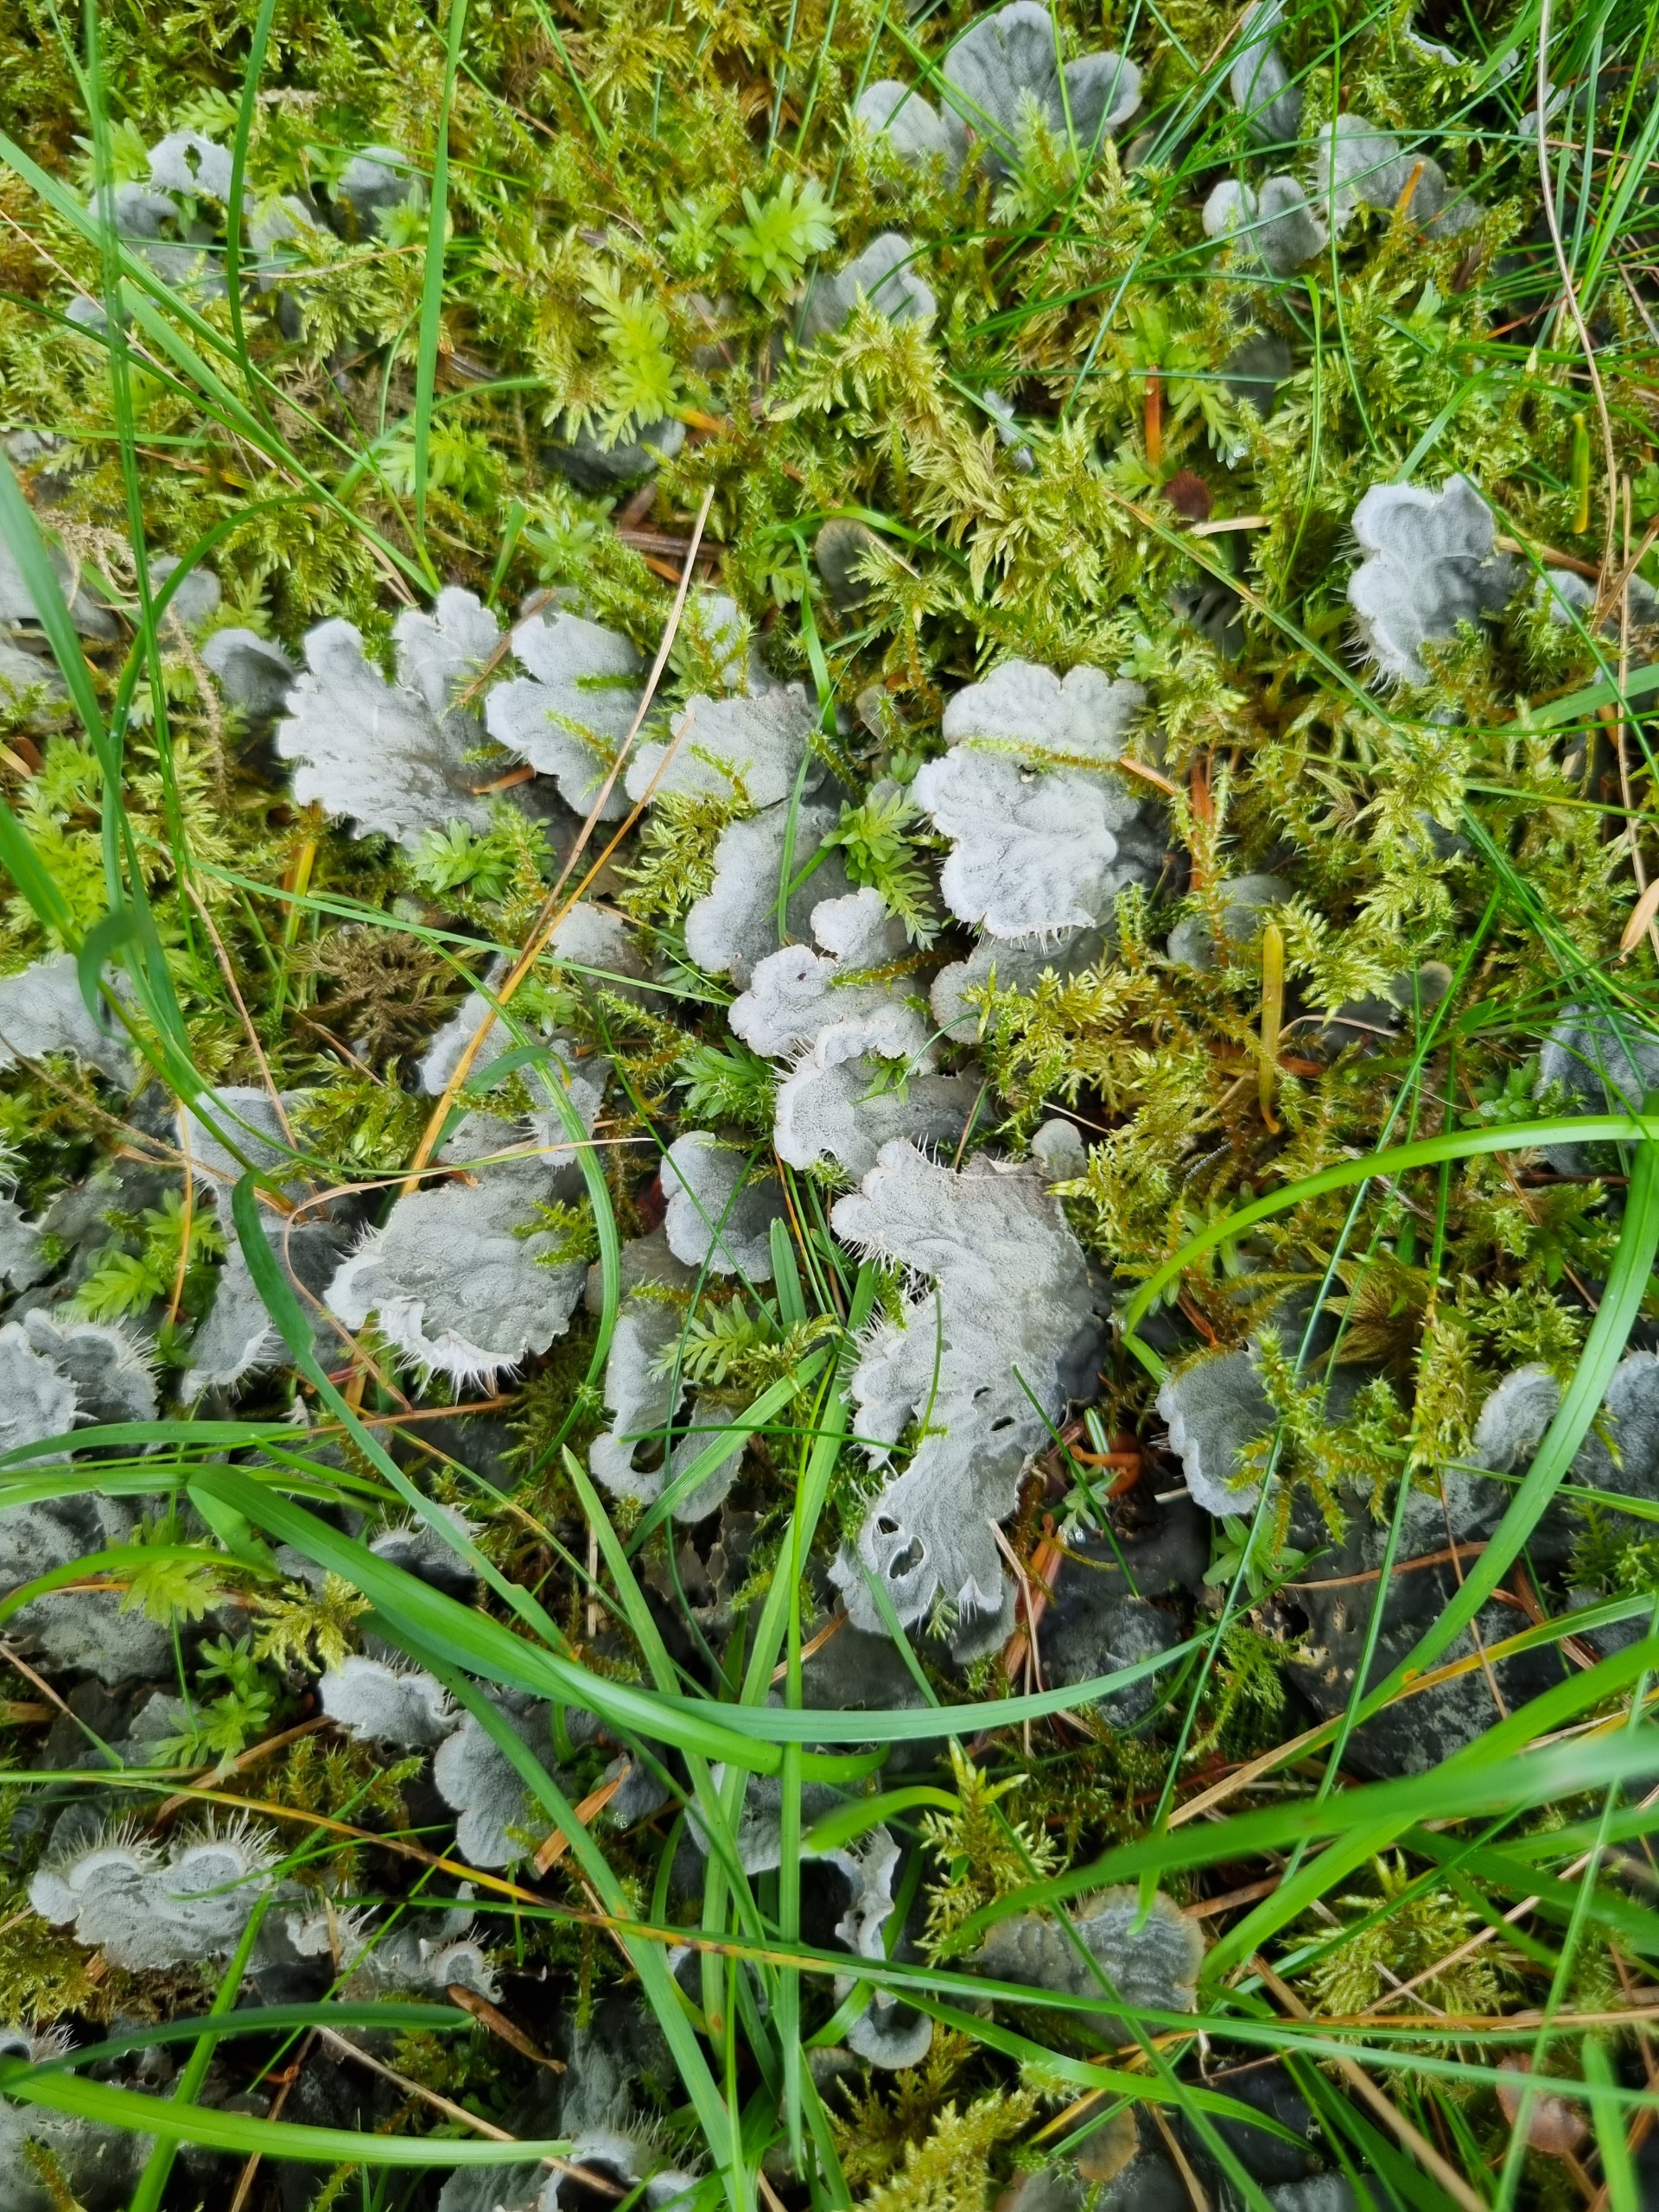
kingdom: Fungi
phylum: Ascomycota
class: Lecanoromycetes
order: Peltigerales
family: Peltigeraceae
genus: Peltigera
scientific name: Peltigera membranacea
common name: Tynd skjoldlav
